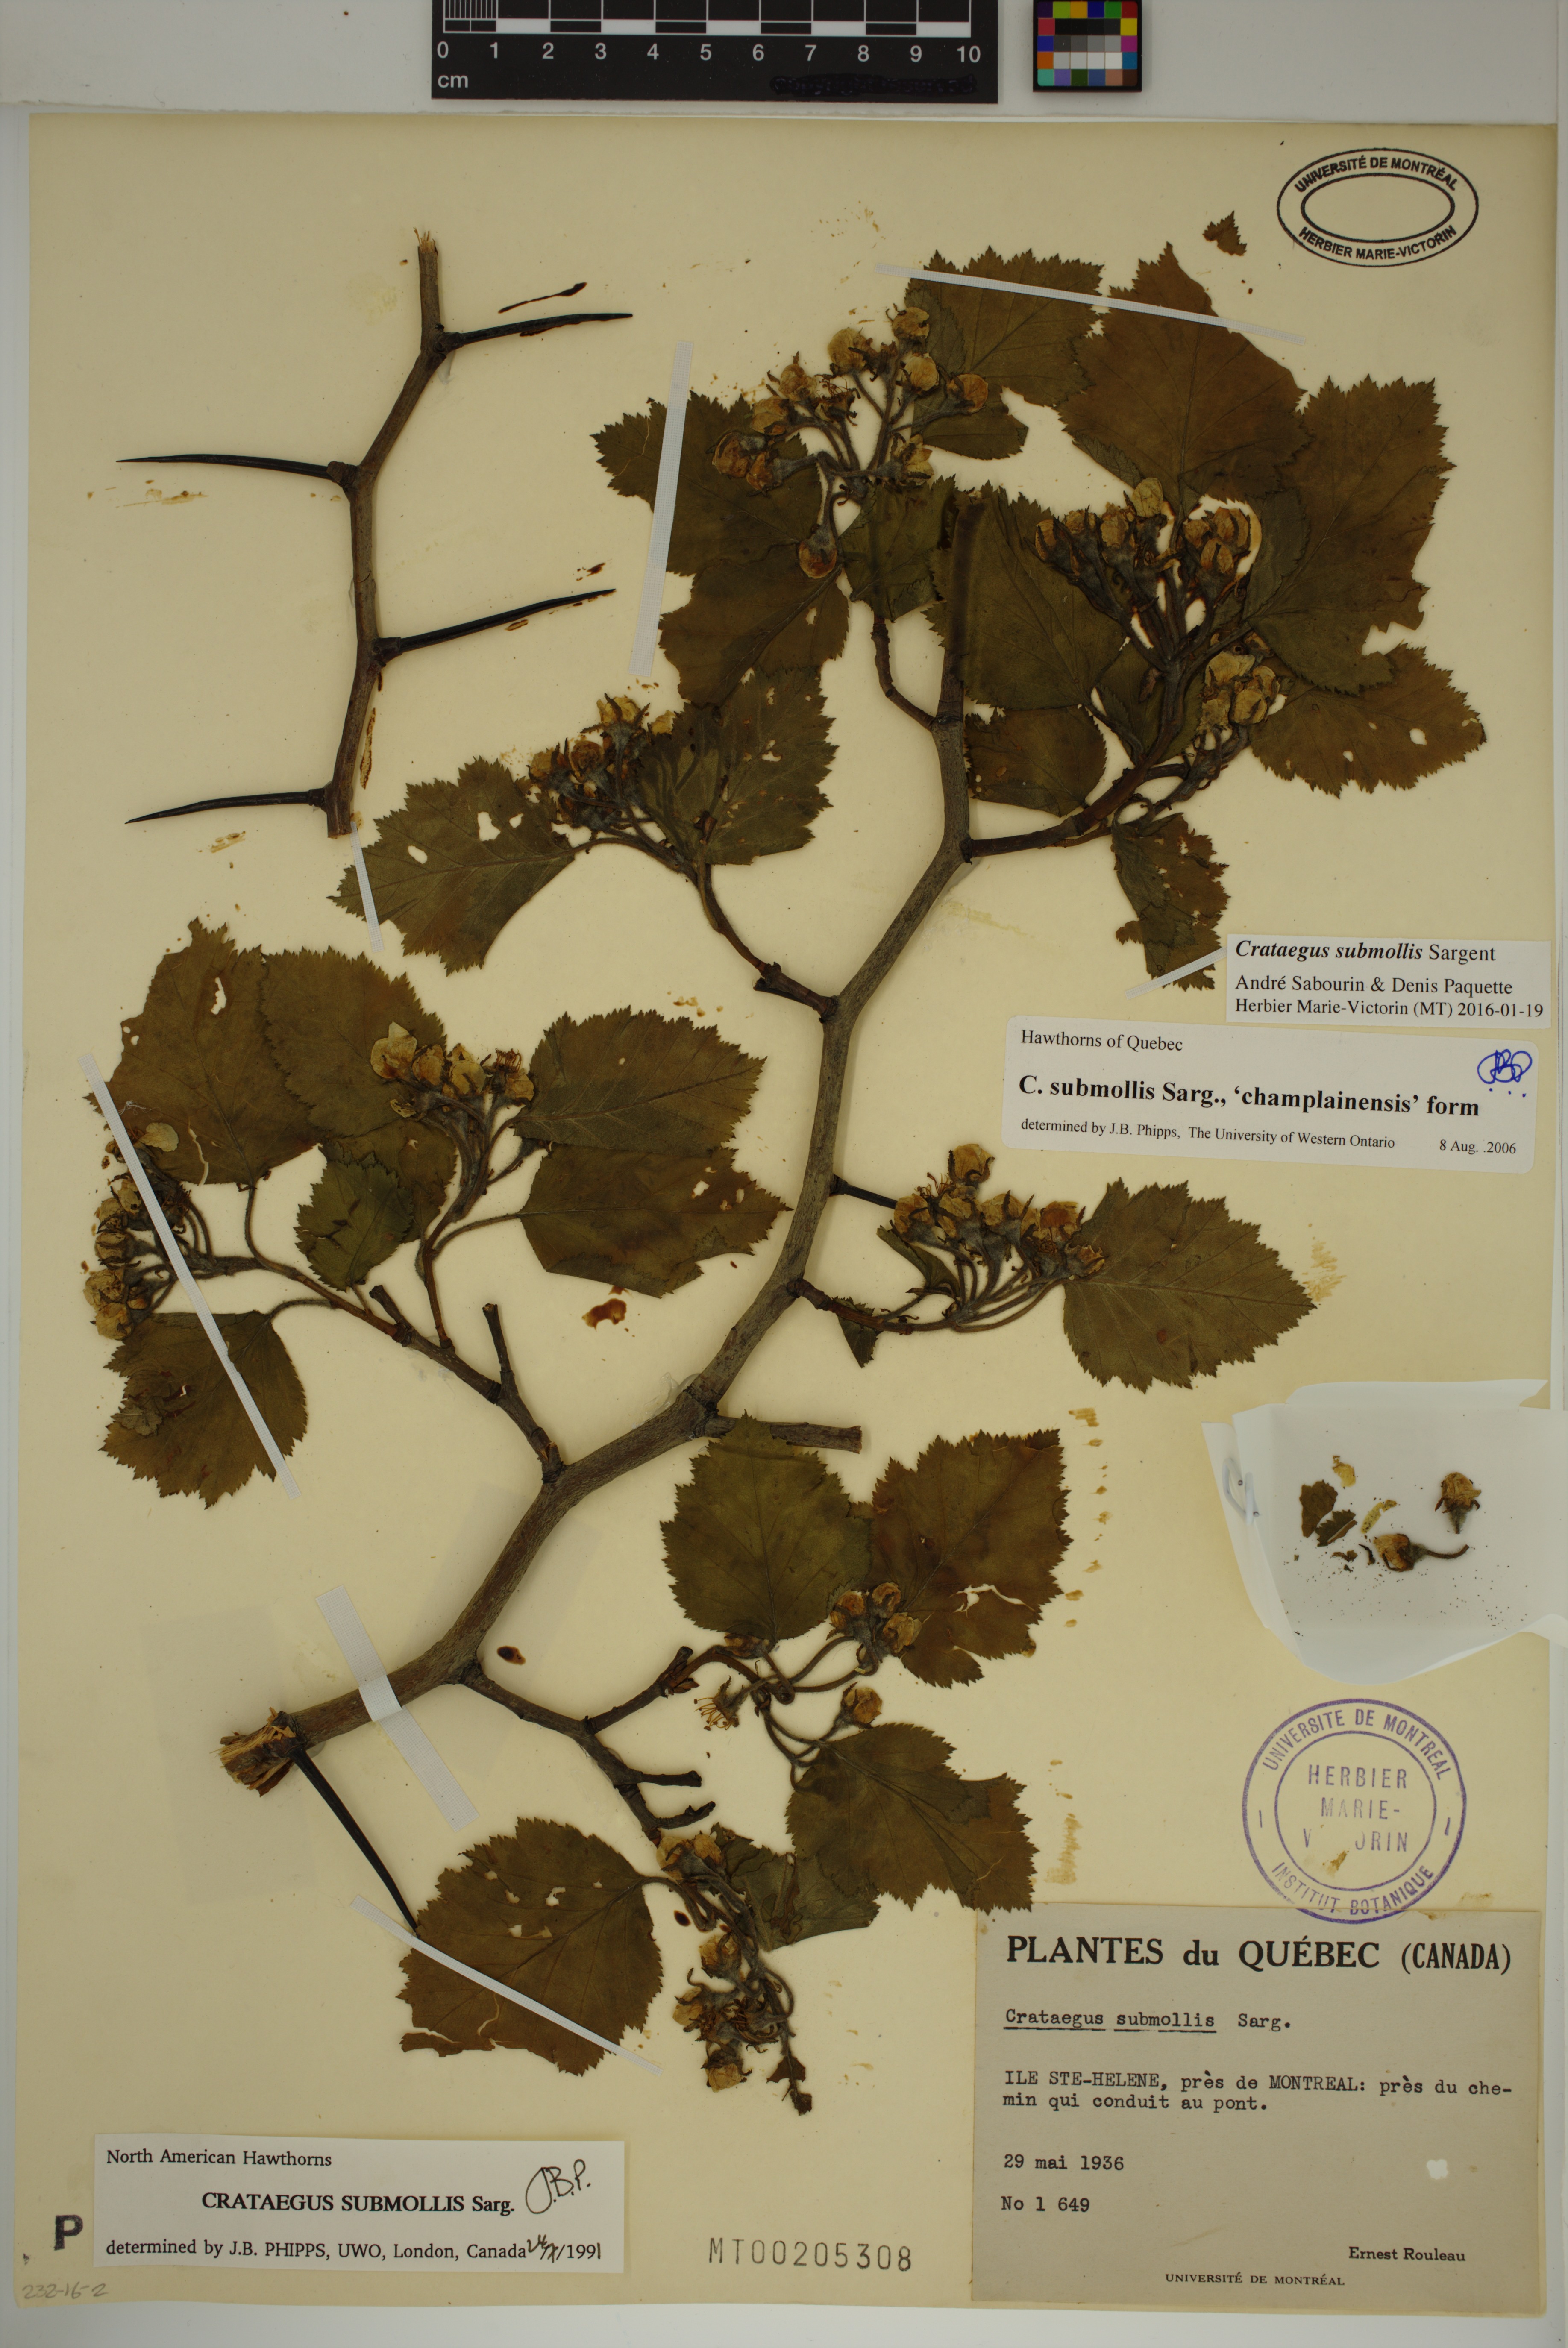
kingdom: Plantae
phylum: Tracheophyta
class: Magnoliopsida
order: Rosales
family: Rosaceae
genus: Crataegus
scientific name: Crataegus submollis
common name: Hairy cockspurthorn
